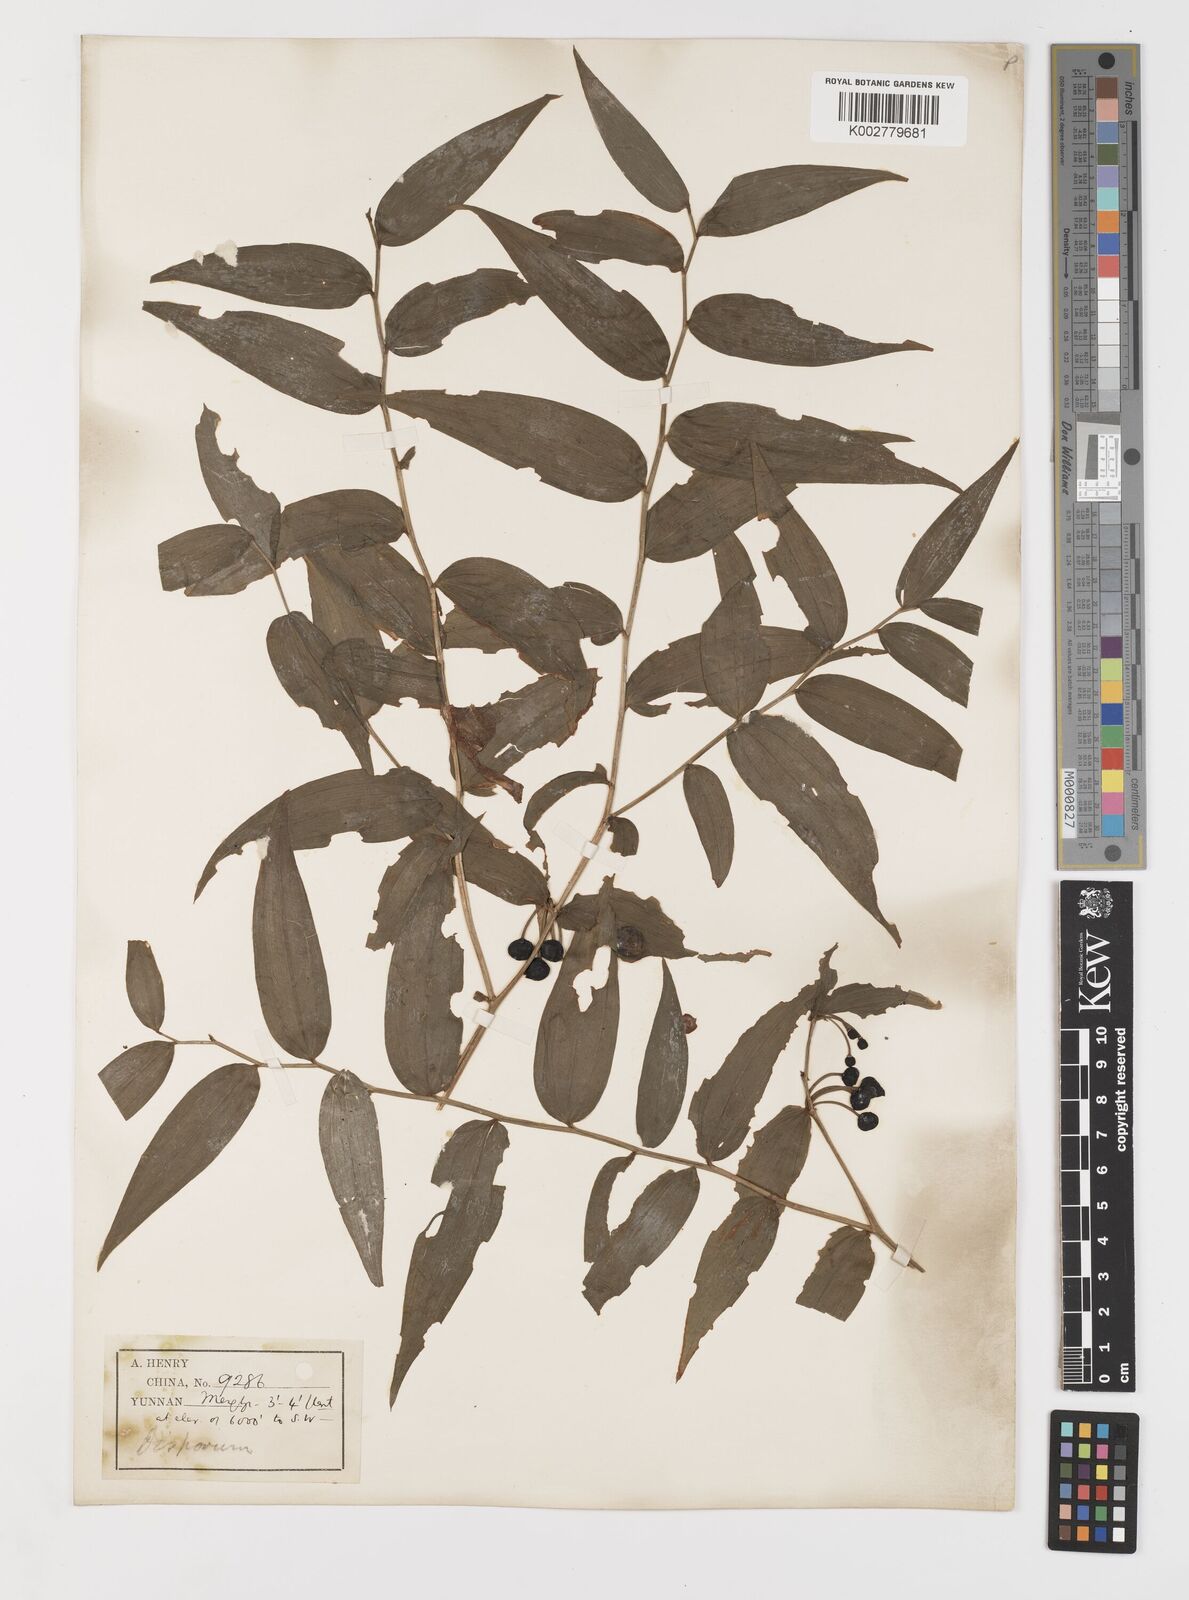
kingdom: Plantae
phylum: Tracheophyta
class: Liliopsida
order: Liliales
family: Colchicaceae
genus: Disporum
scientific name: Disporum cantoniense
